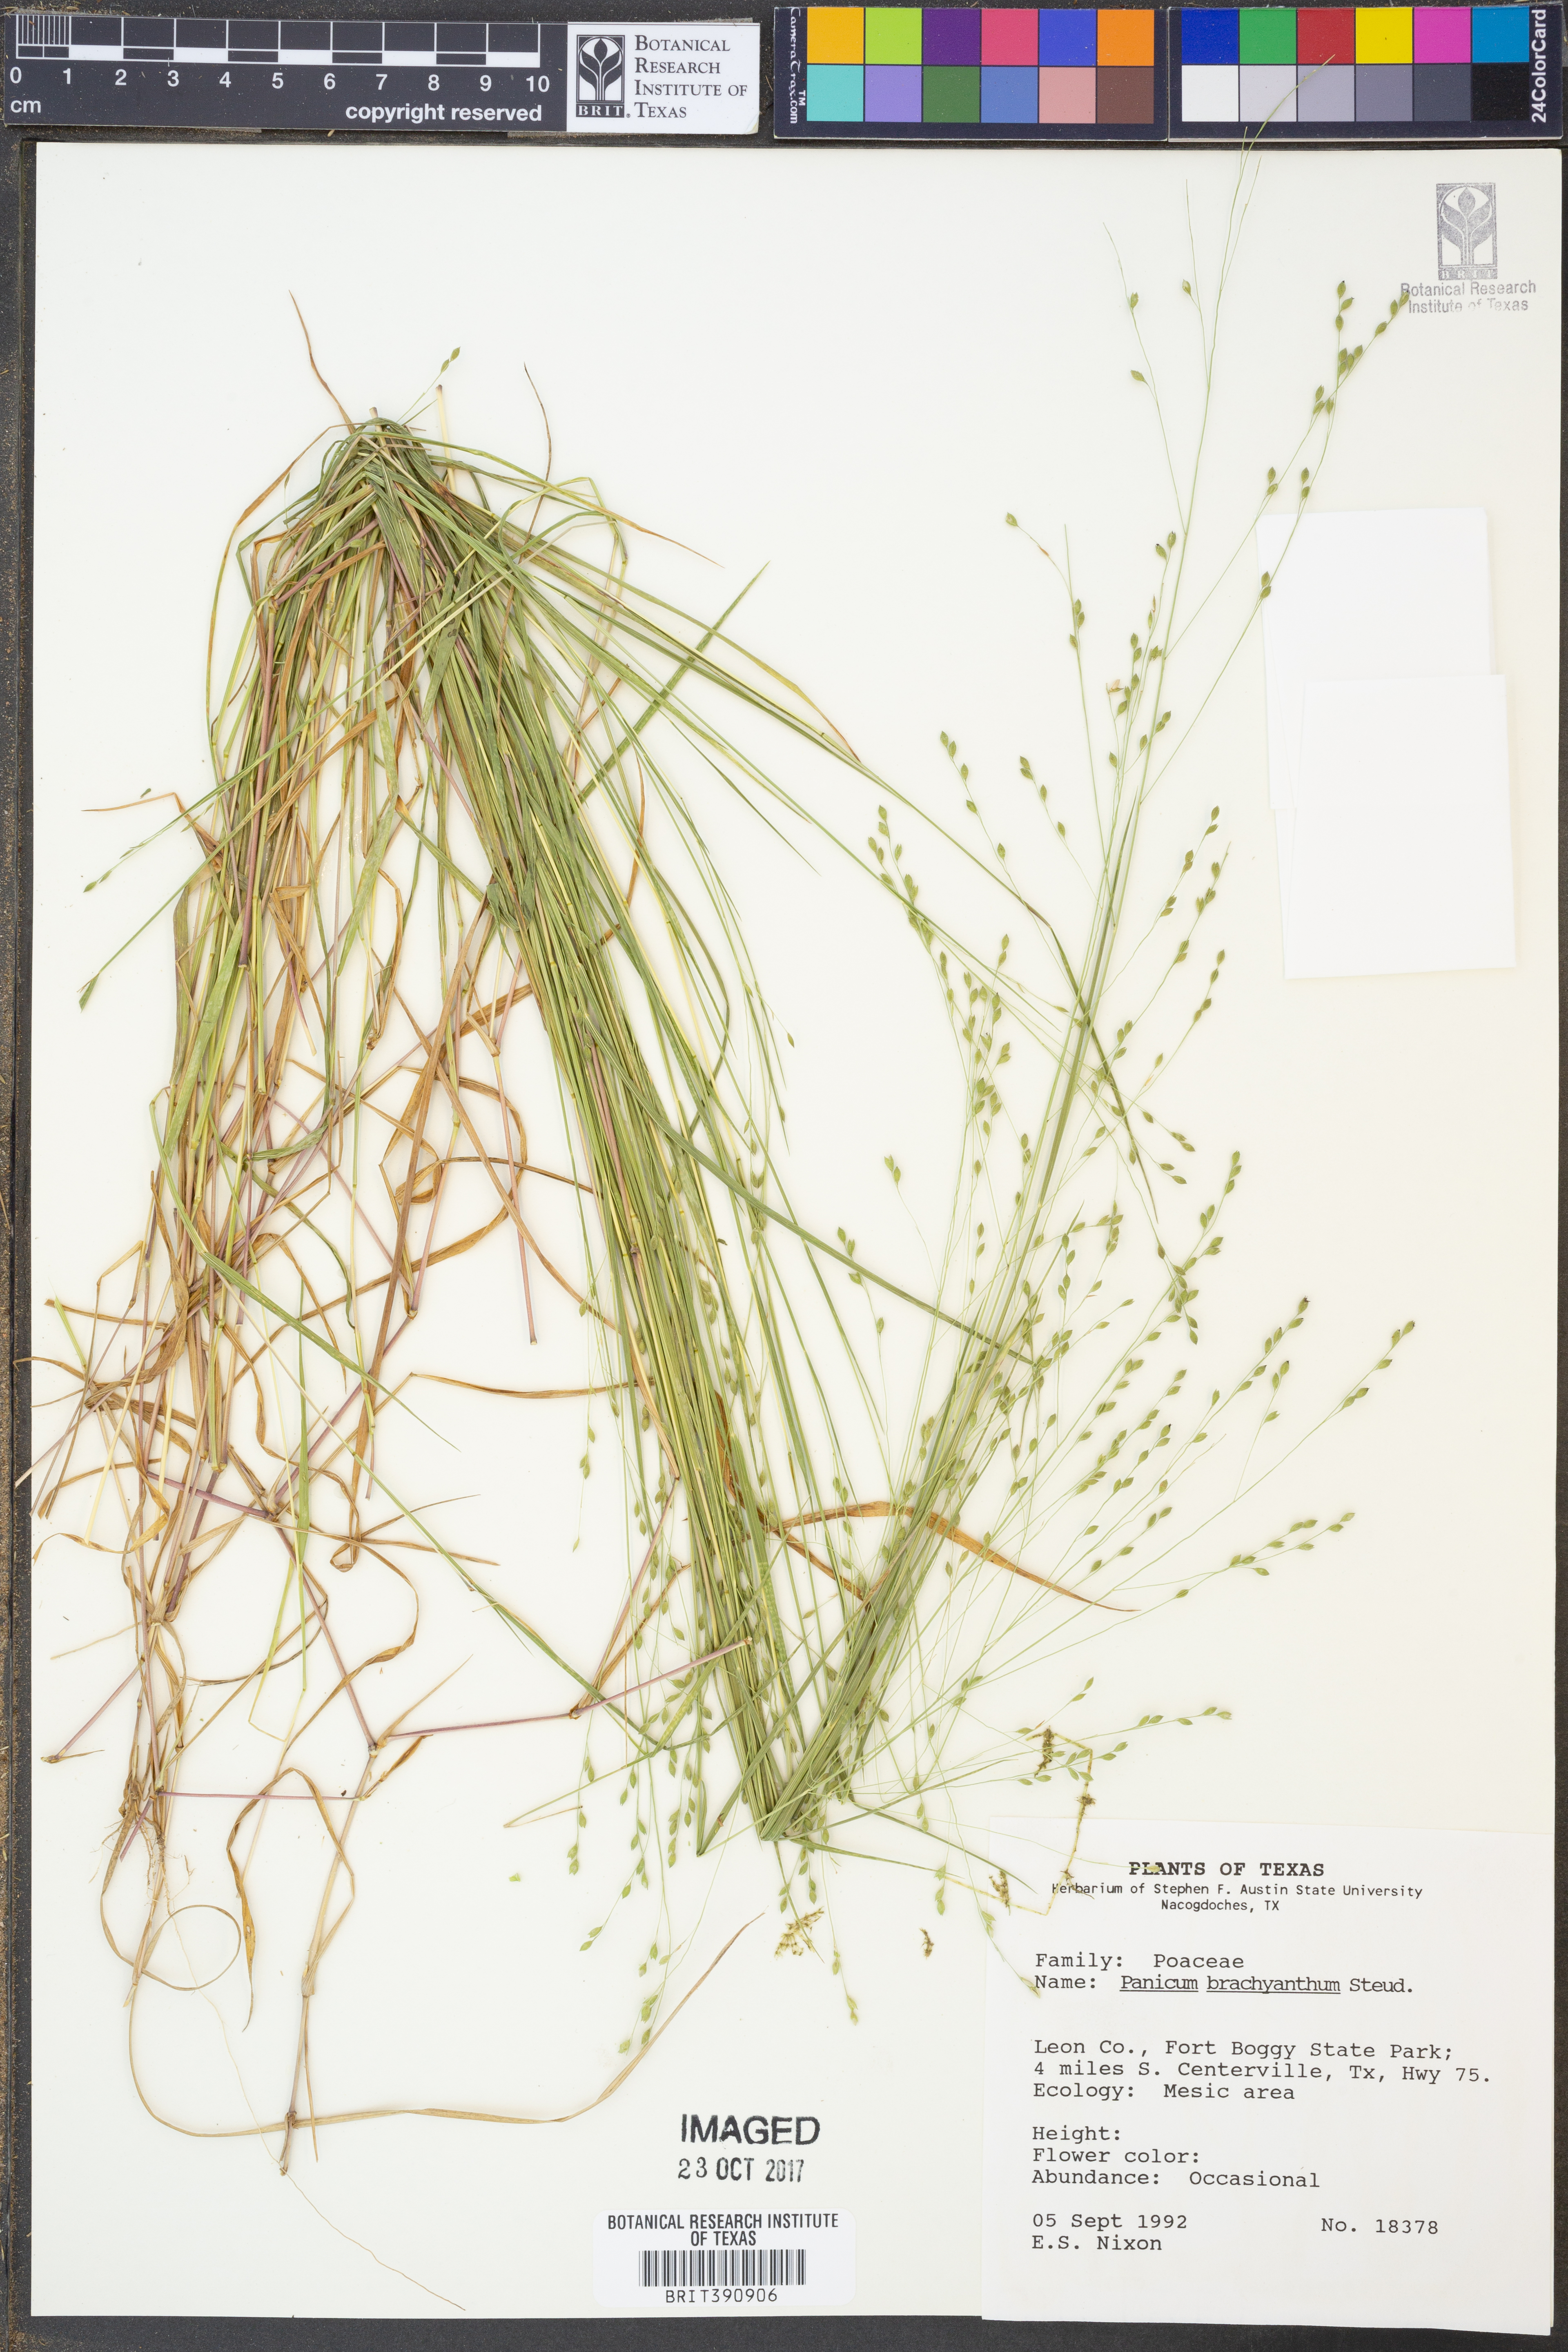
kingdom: Plantae
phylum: Tracheophyta
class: Liliopsida
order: Poales
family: Poaceae
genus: Kellochloa
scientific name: Kellochloa brachyantha
